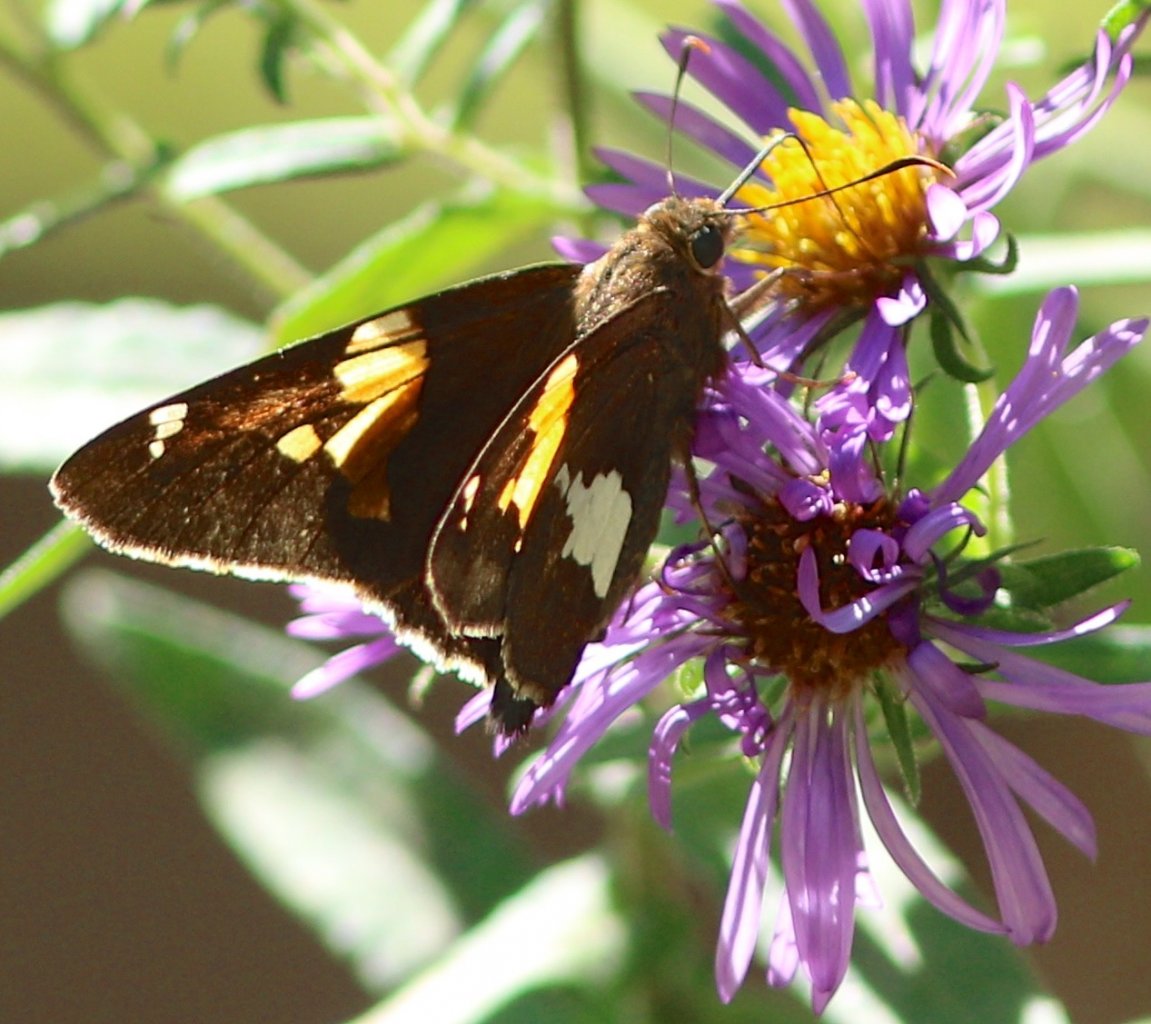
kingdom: Animalia
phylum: Arthropoda
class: Insecta
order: Lepidoptera
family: Hesperiidae
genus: Epargyreus
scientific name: Epargyreus clarus
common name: Silver-spotted Skipper
